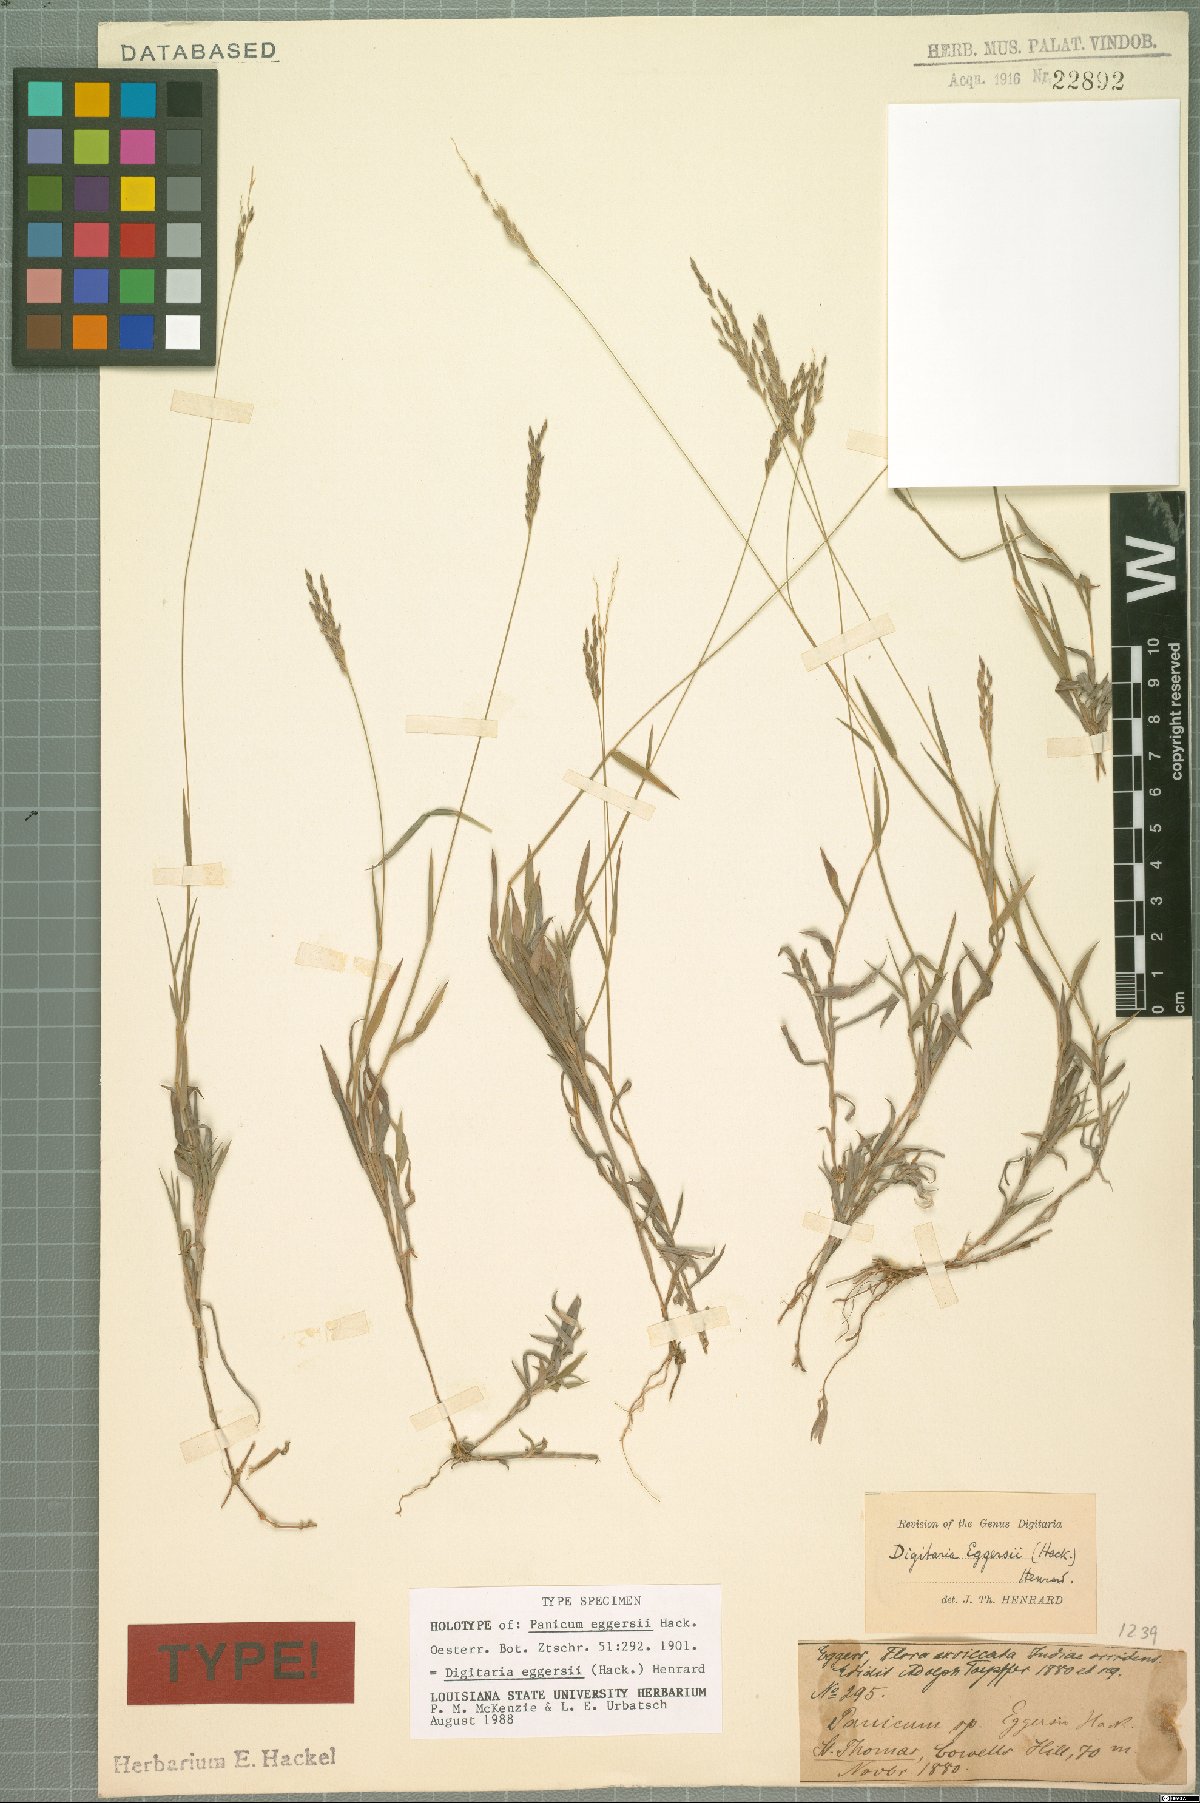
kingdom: Plantae
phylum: Tracheophyta
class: Liliopsida
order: Poales
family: Poaceae
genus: Digitaria
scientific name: Digitaria eggersii
